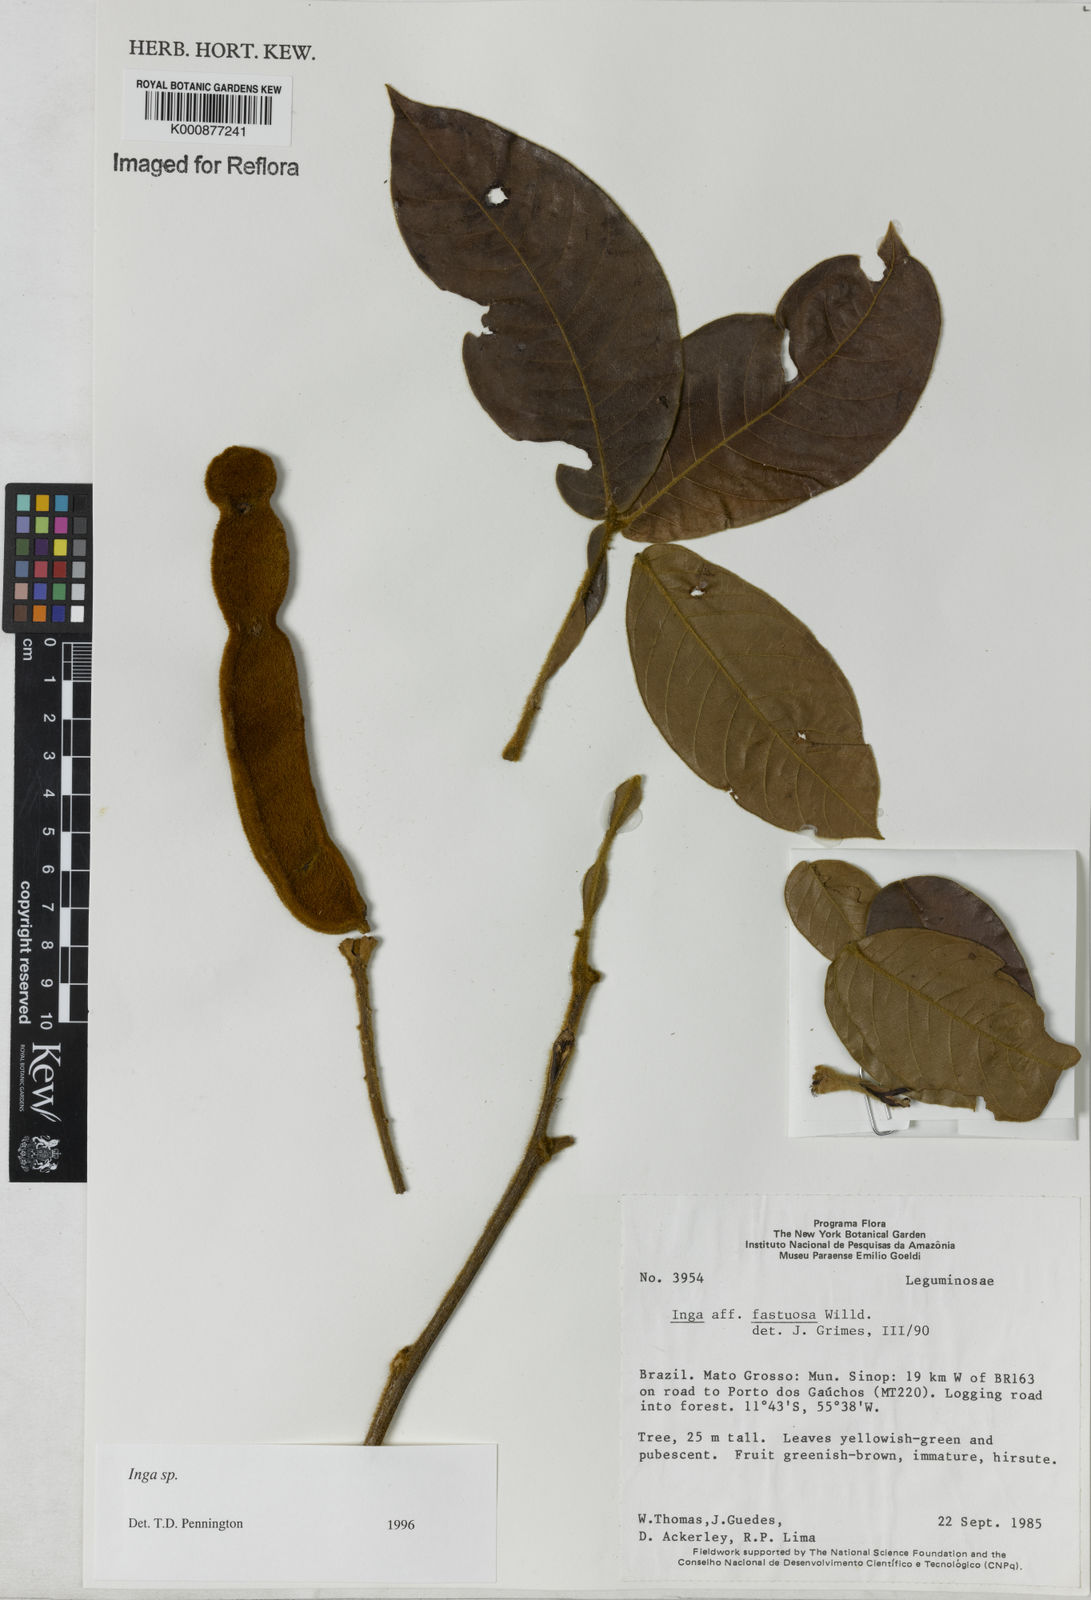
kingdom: Plantae
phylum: Tracheophyta
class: Magnoliopsida
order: Fabales
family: Fabaceae
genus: Inga
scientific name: Inga
